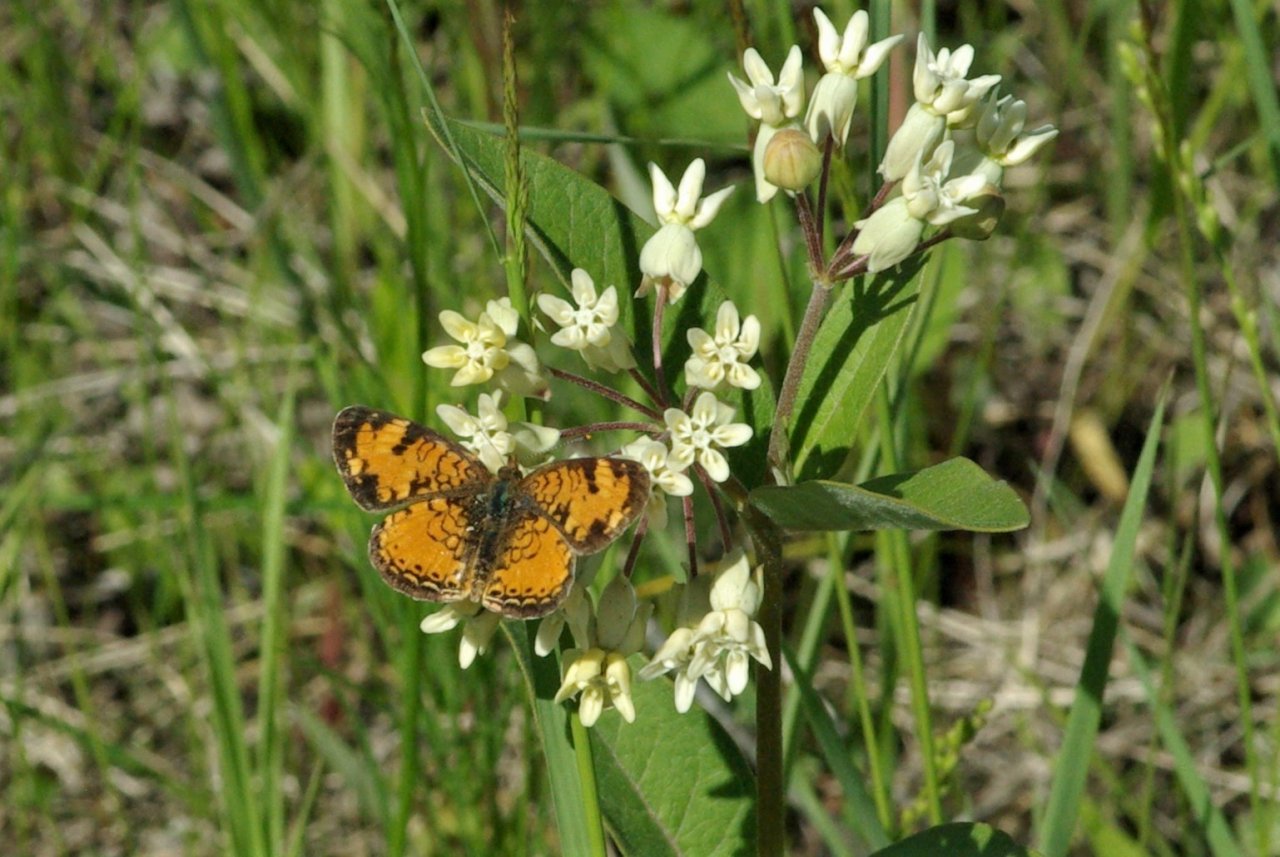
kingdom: Animalia
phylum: Arthropoda
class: Insecta
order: Lepidoptera
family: Nymphalidae
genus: Phyciodes
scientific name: Phyciodes tharos
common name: Northern Crescent
